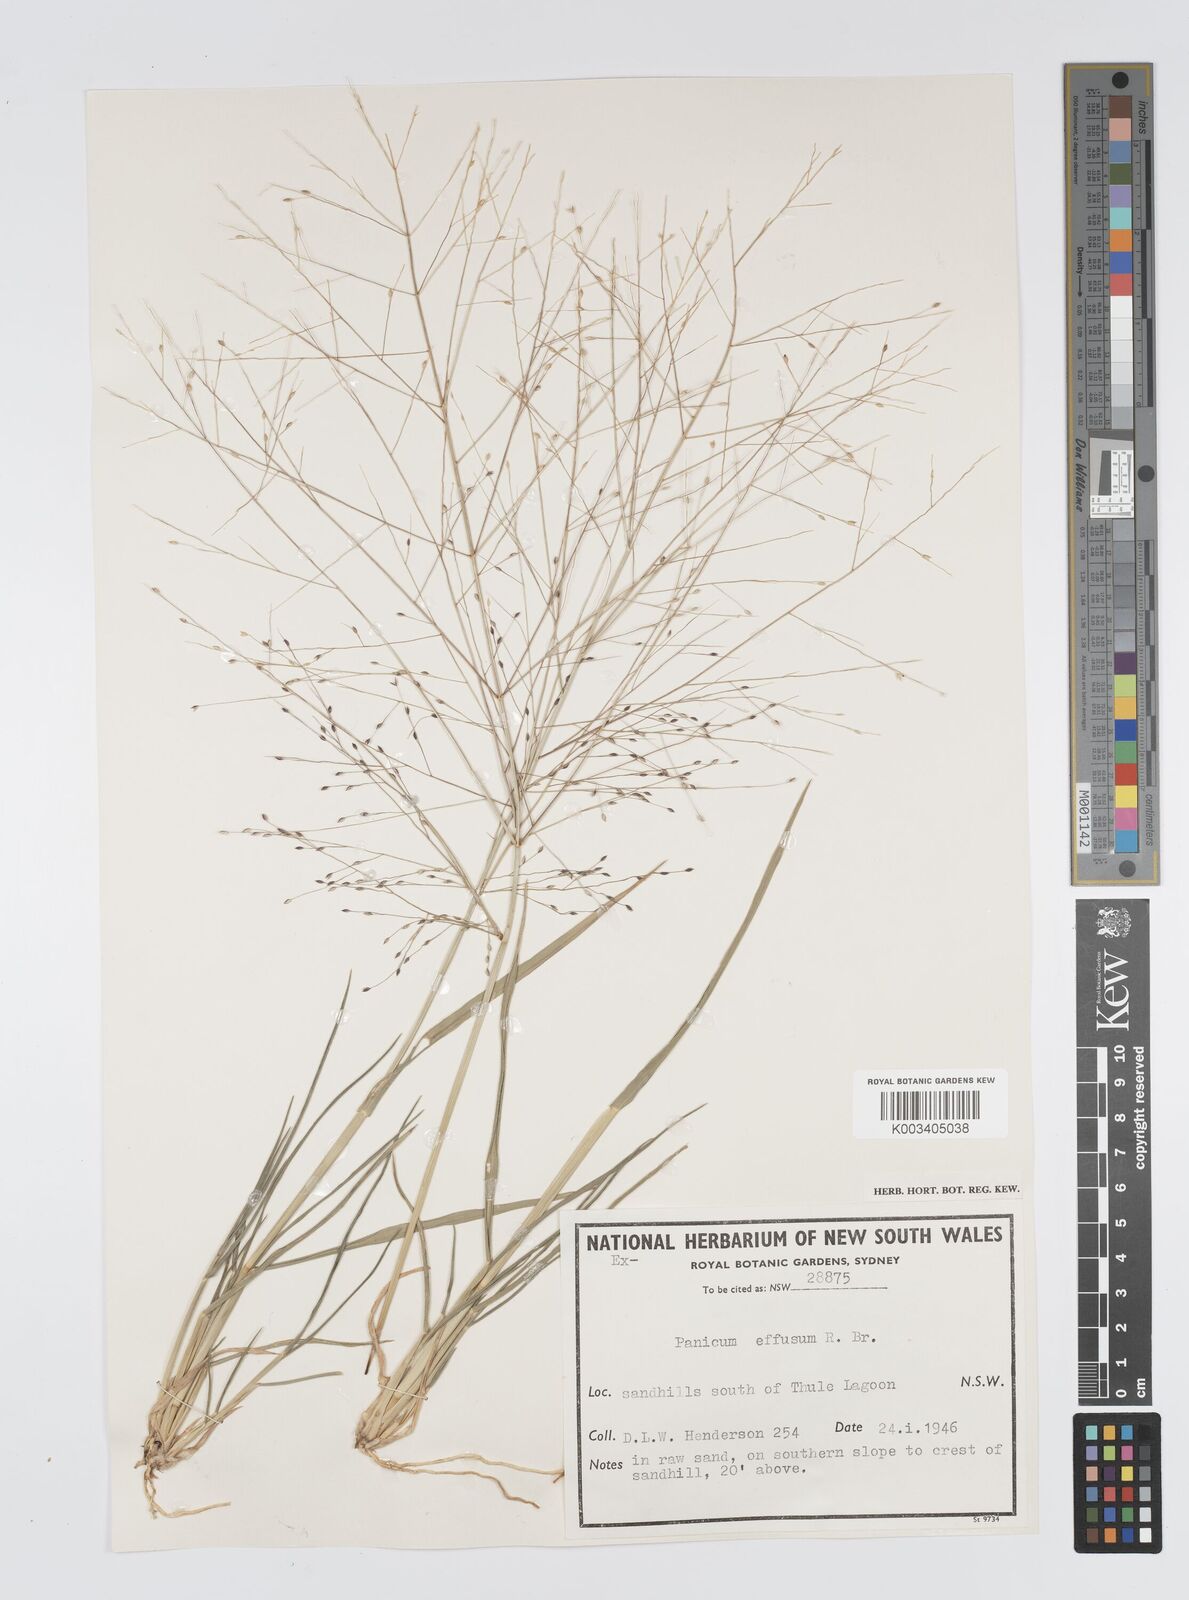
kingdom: Plantae
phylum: Tracheophyta
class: Liliopsida
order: Poales
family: Poaceae
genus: Panicum
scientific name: Panicum effusum
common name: Hairy panic grass
